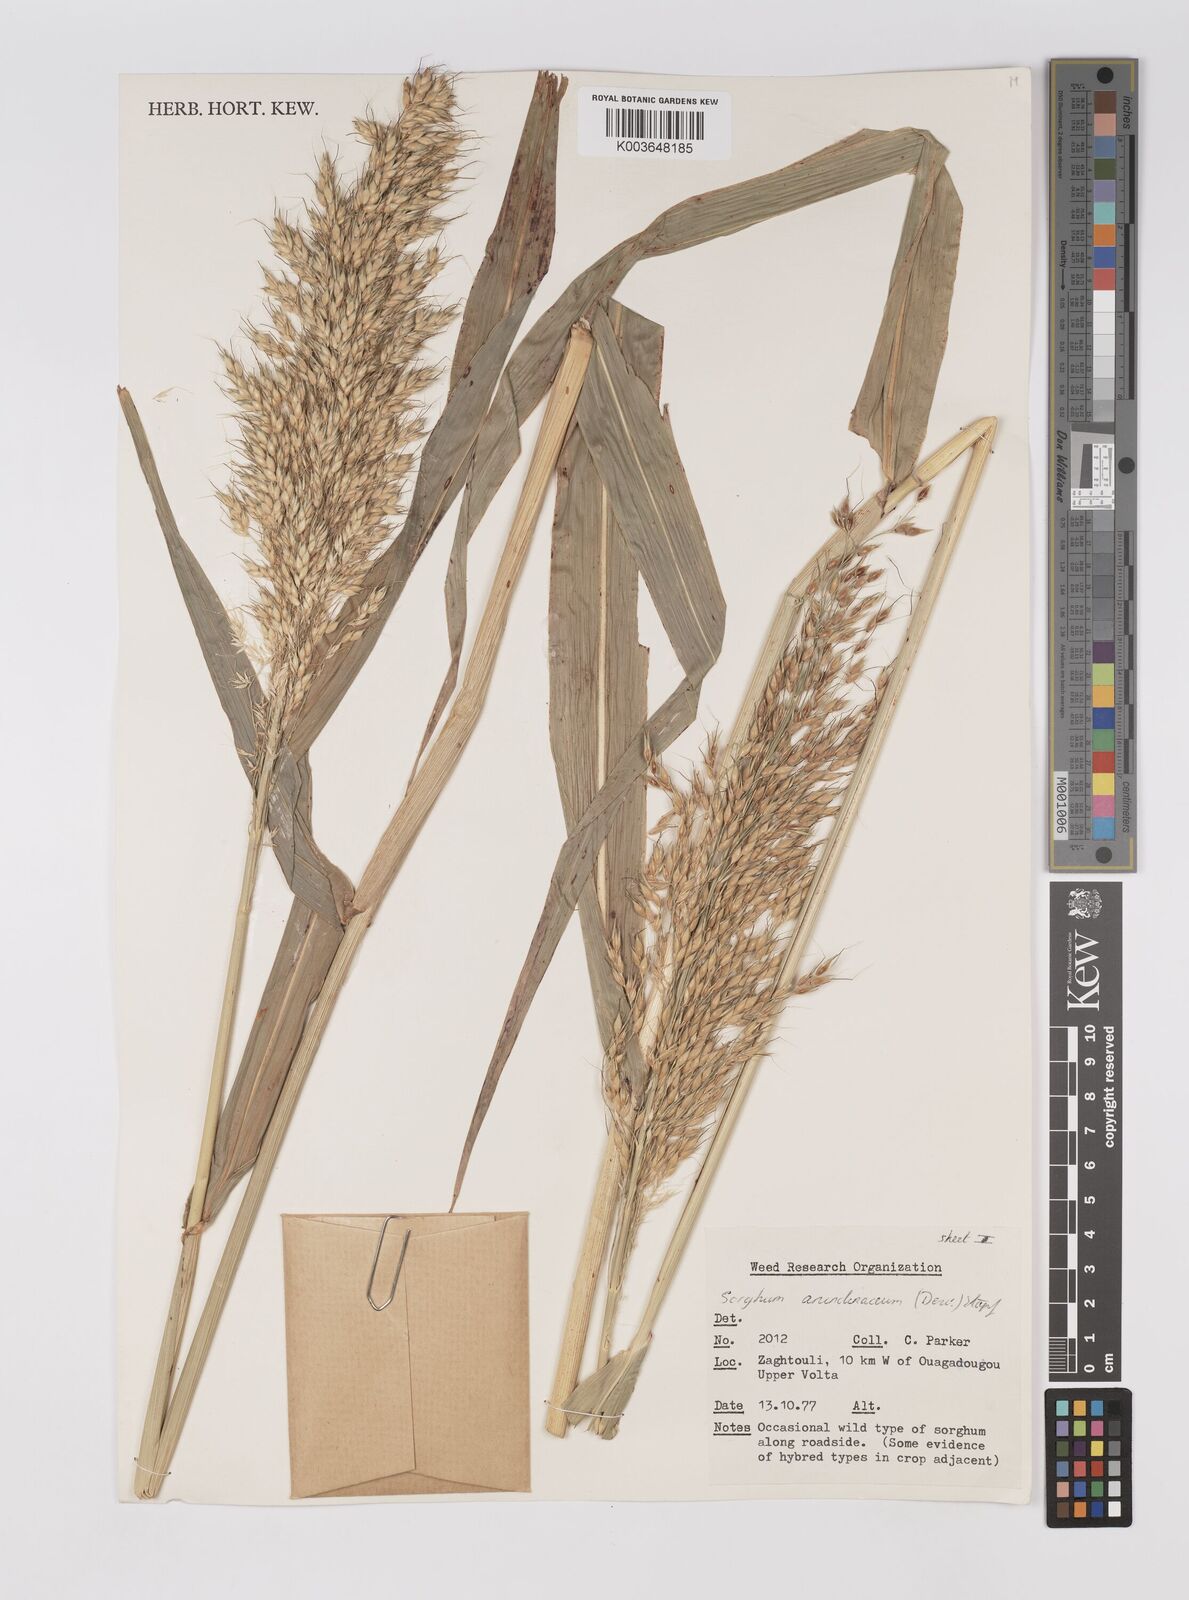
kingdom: Plantae
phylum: Tracheophyta
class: Liliopsida
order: Poales
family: Poaceae
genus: Sorghum
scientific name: Sorghum arundinaceum
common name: Sorghum
